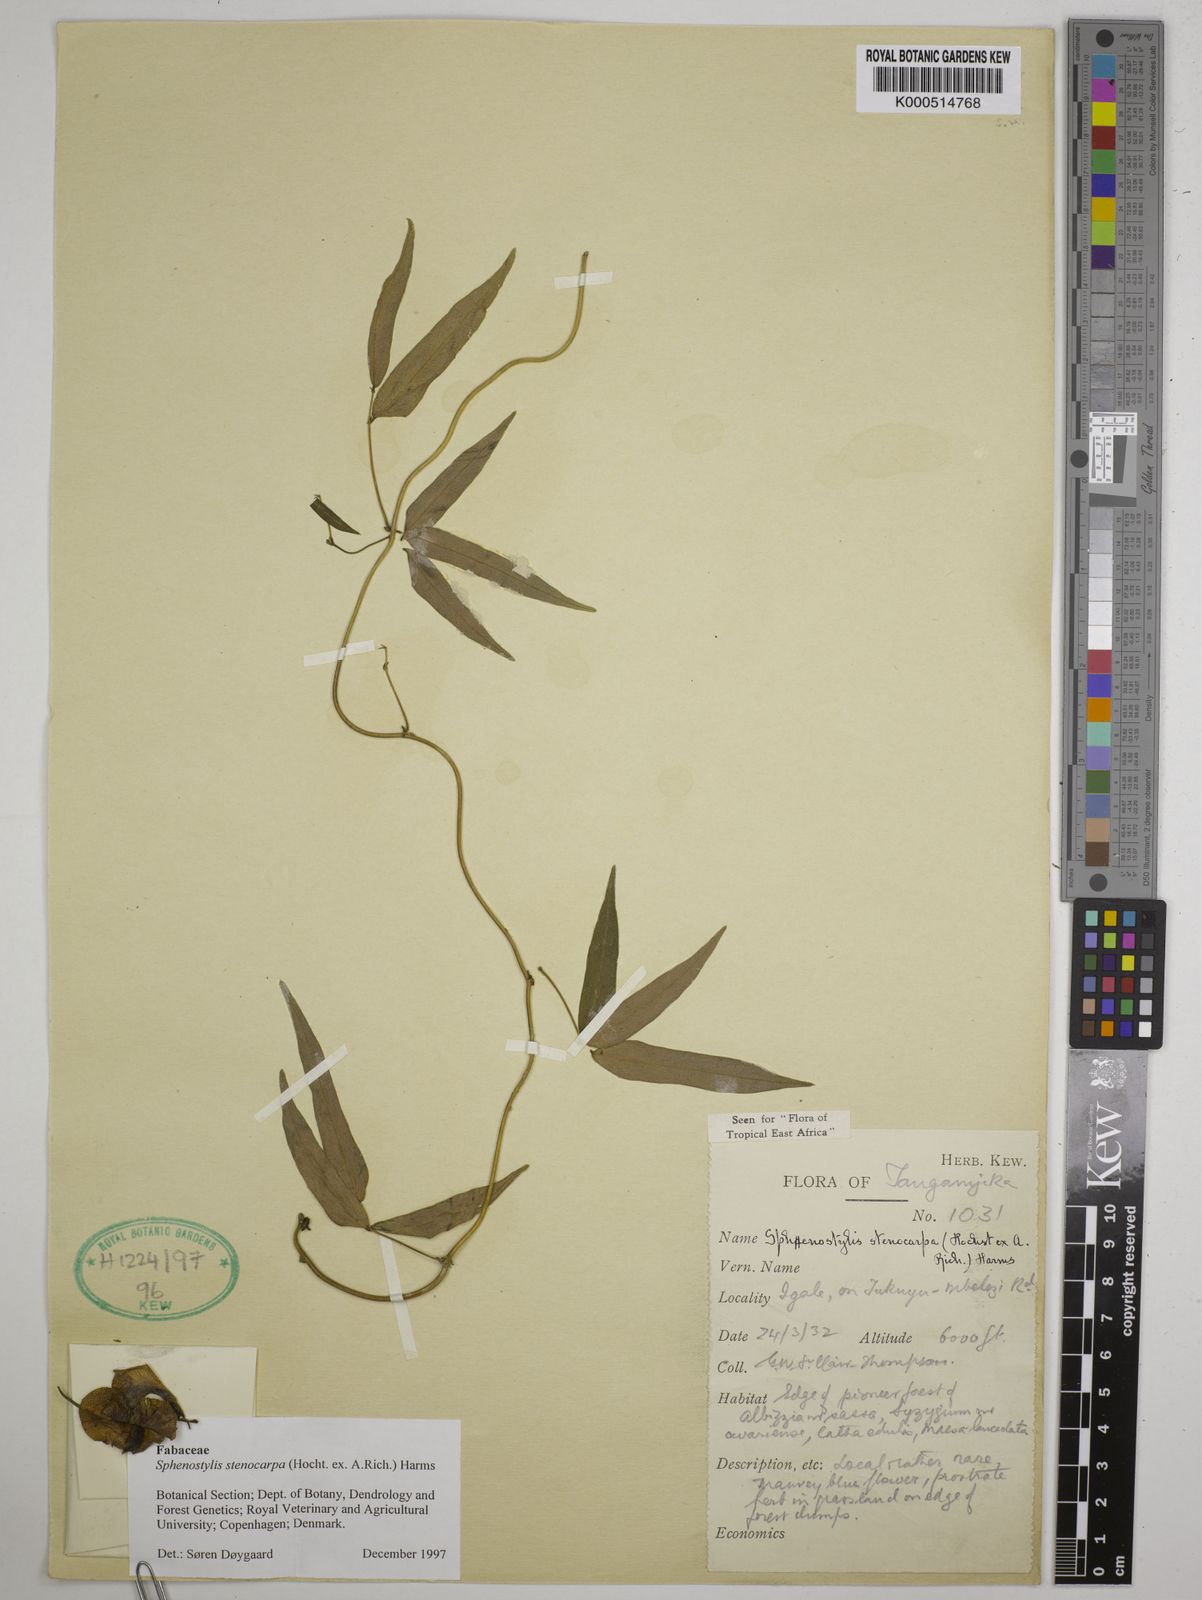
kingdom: Plantae
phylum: Tracheophyta
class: Magnoliopsida
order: Fabales
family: Fabaceae
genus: Sphenostylis
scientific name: Sphenostylis stenocarpa
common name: Yam-pea
